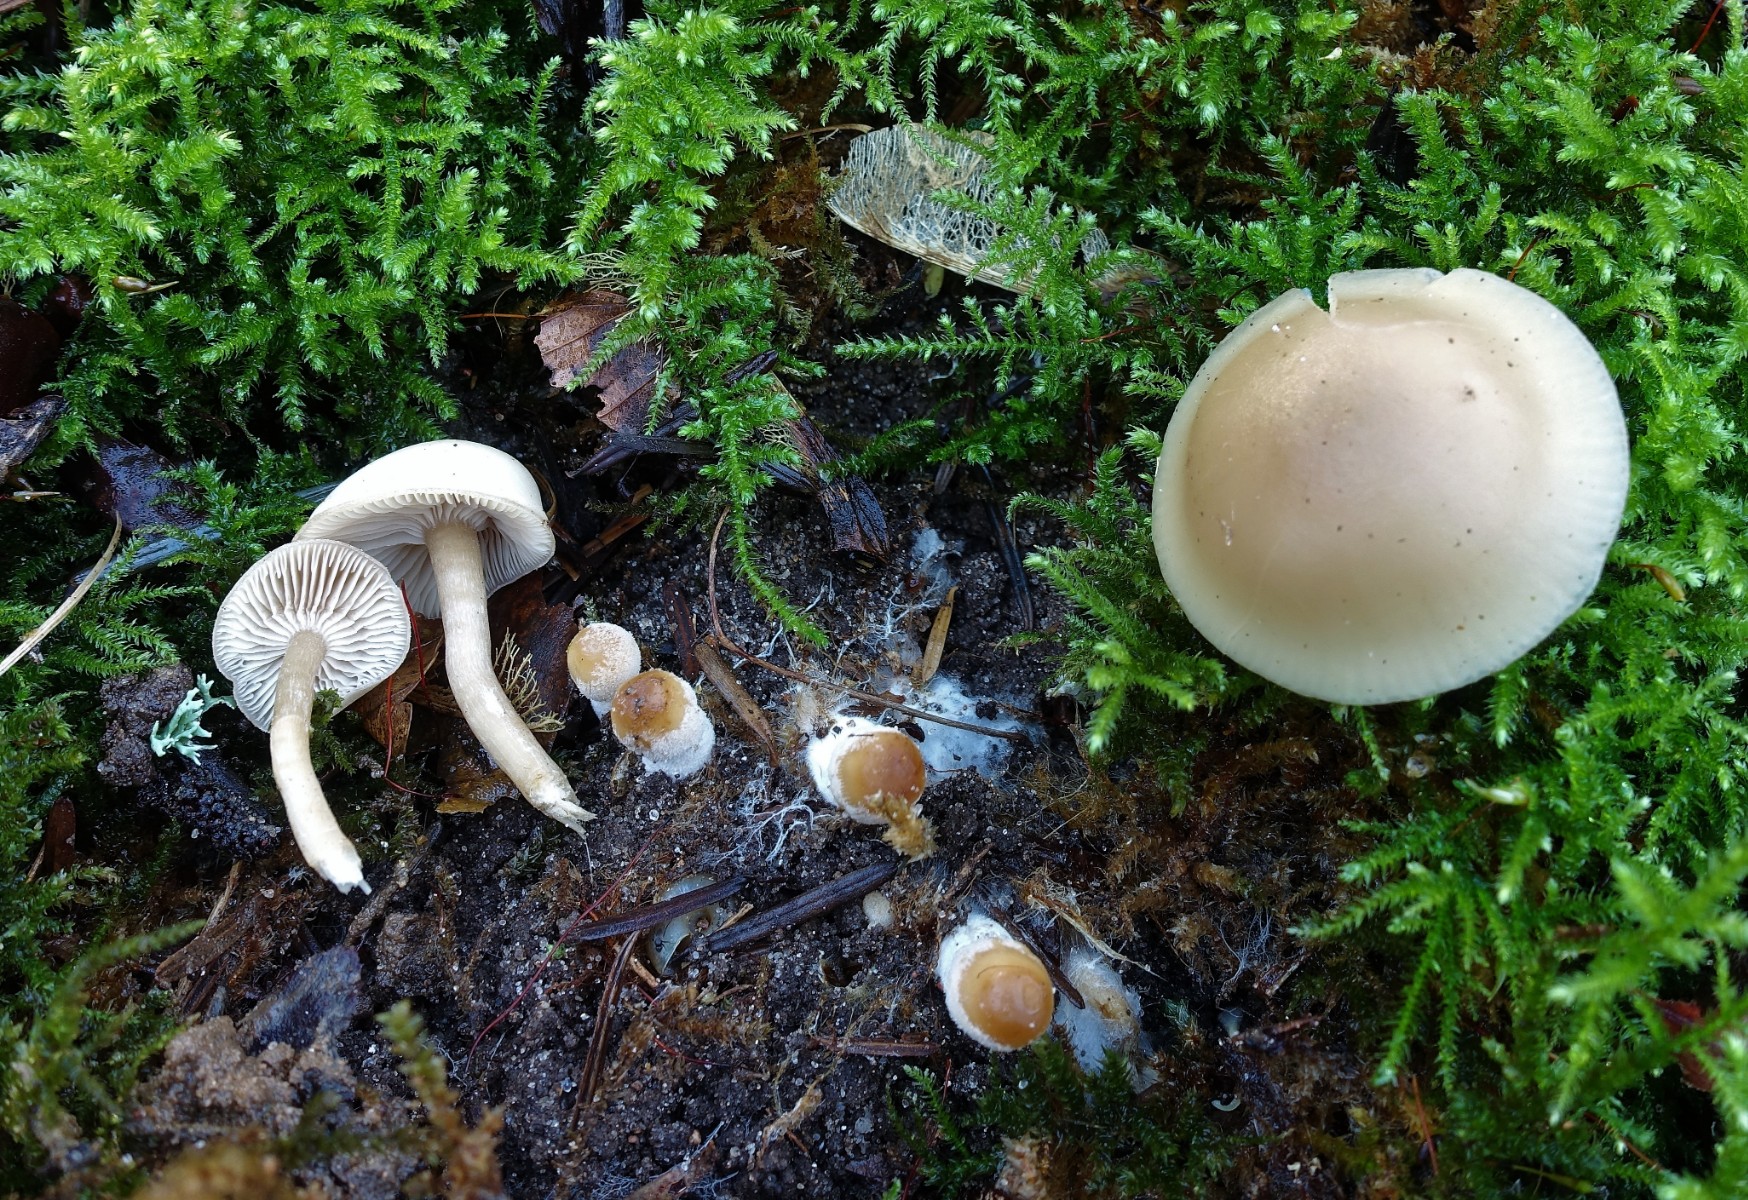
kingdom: Fungi
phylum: Basidiomycota
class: Agaricomycetes
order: Agaricales
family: Tricholomataceae
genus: Clitocybe
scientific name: Clitocybe fragrans
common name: vellugtende tragthat
